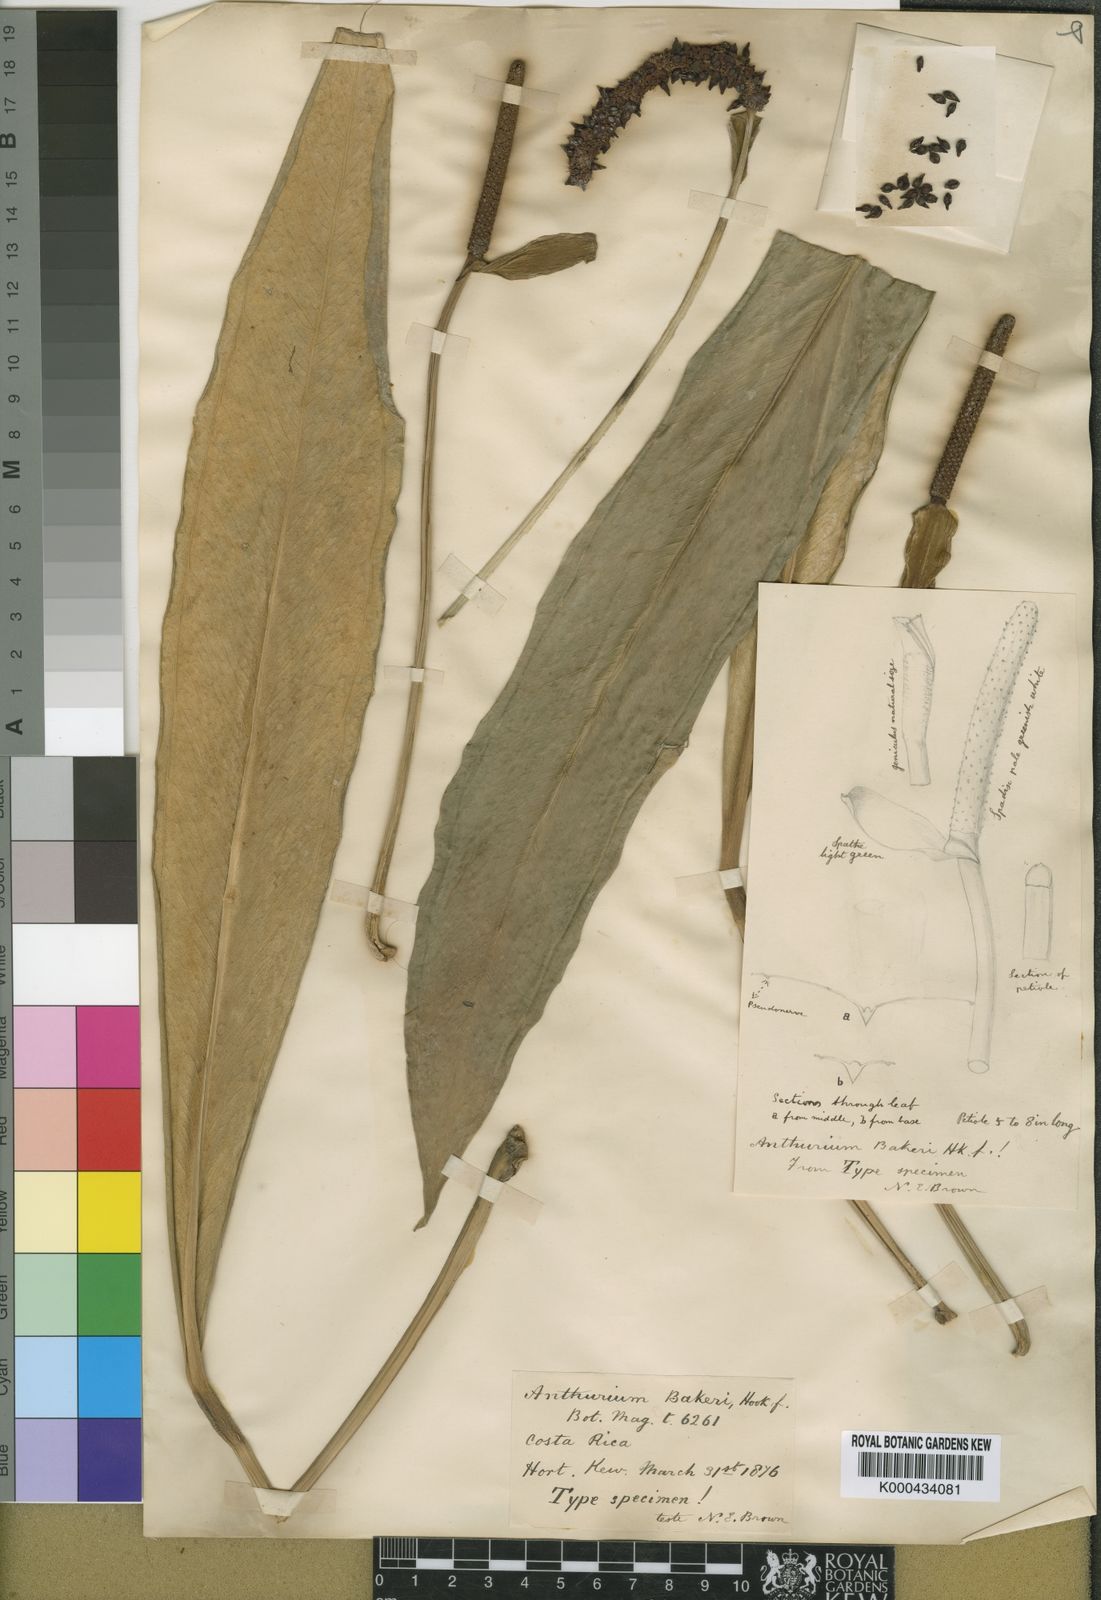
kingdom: Plantae
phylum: Tracheophyta
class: Liliopsida
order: Alismatales
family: Araceae
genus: Anthurium
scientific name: Anthurium bakeri
